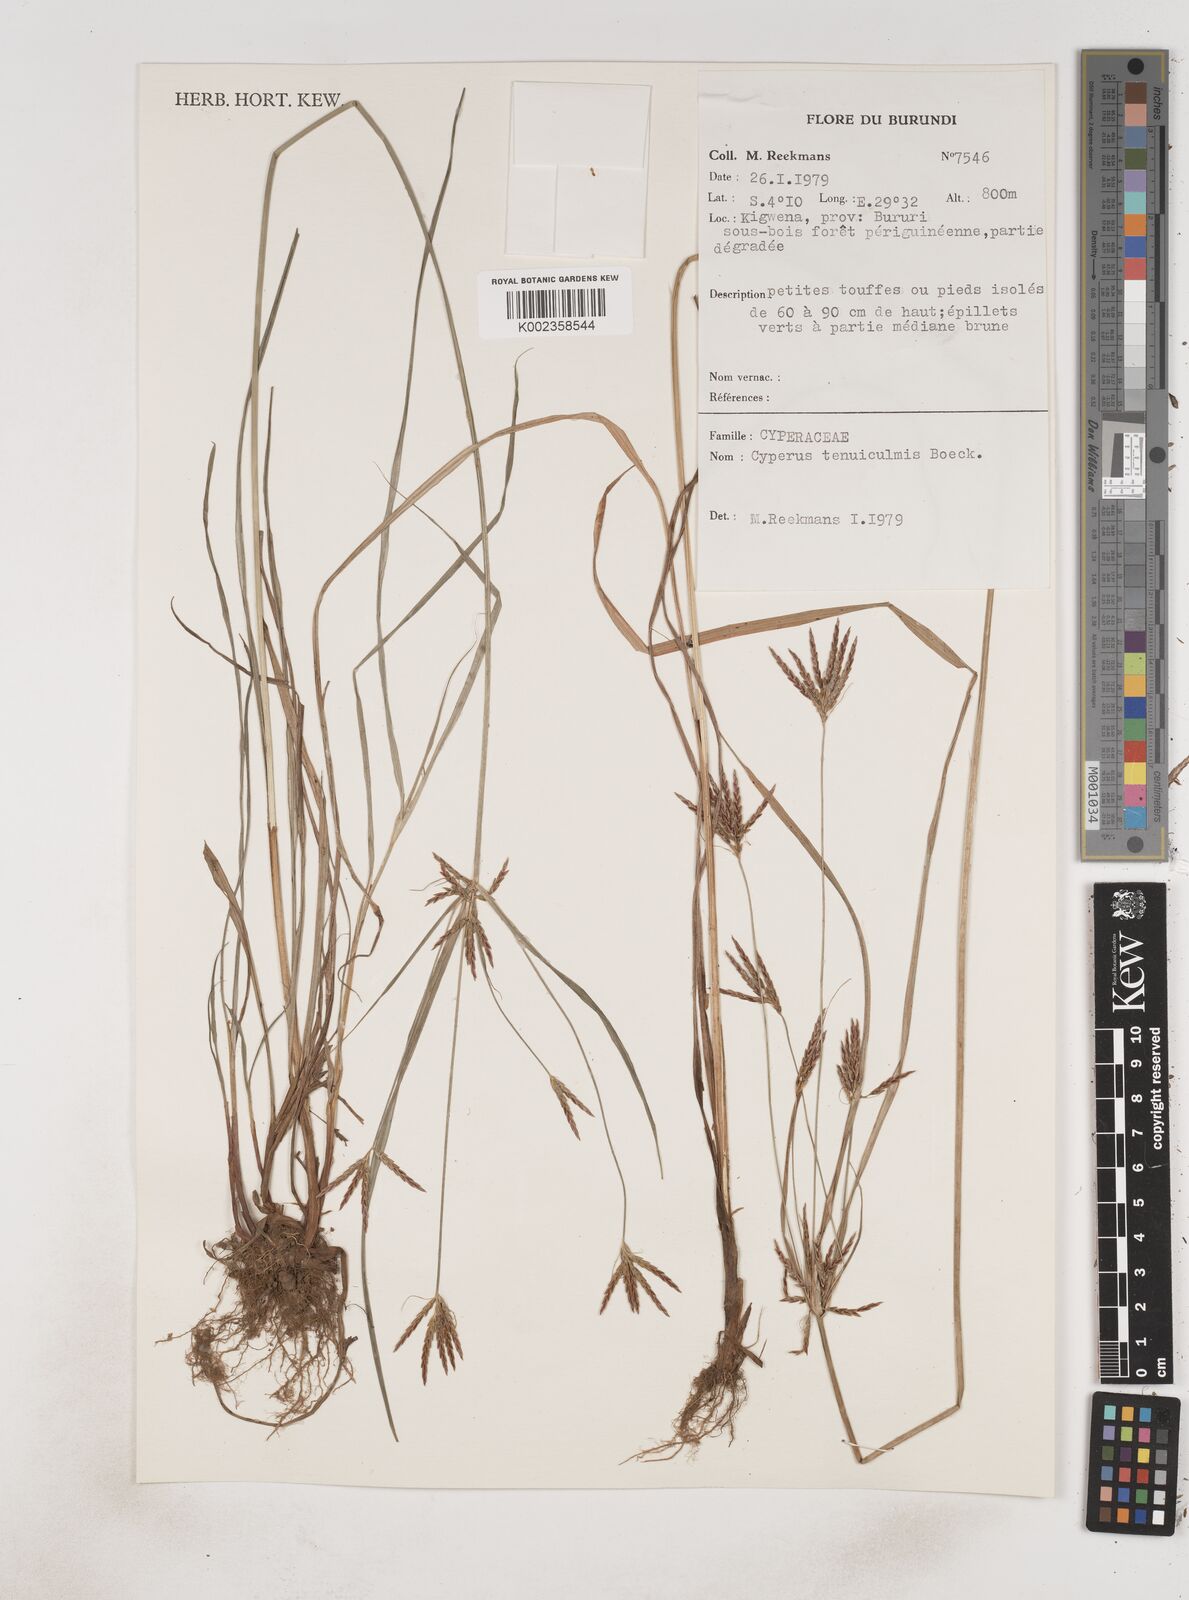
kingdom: Plantae
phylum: Tracheophyta
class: Liliopsida
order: Poales
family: Cyperaceae
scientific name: Cyperaceae
